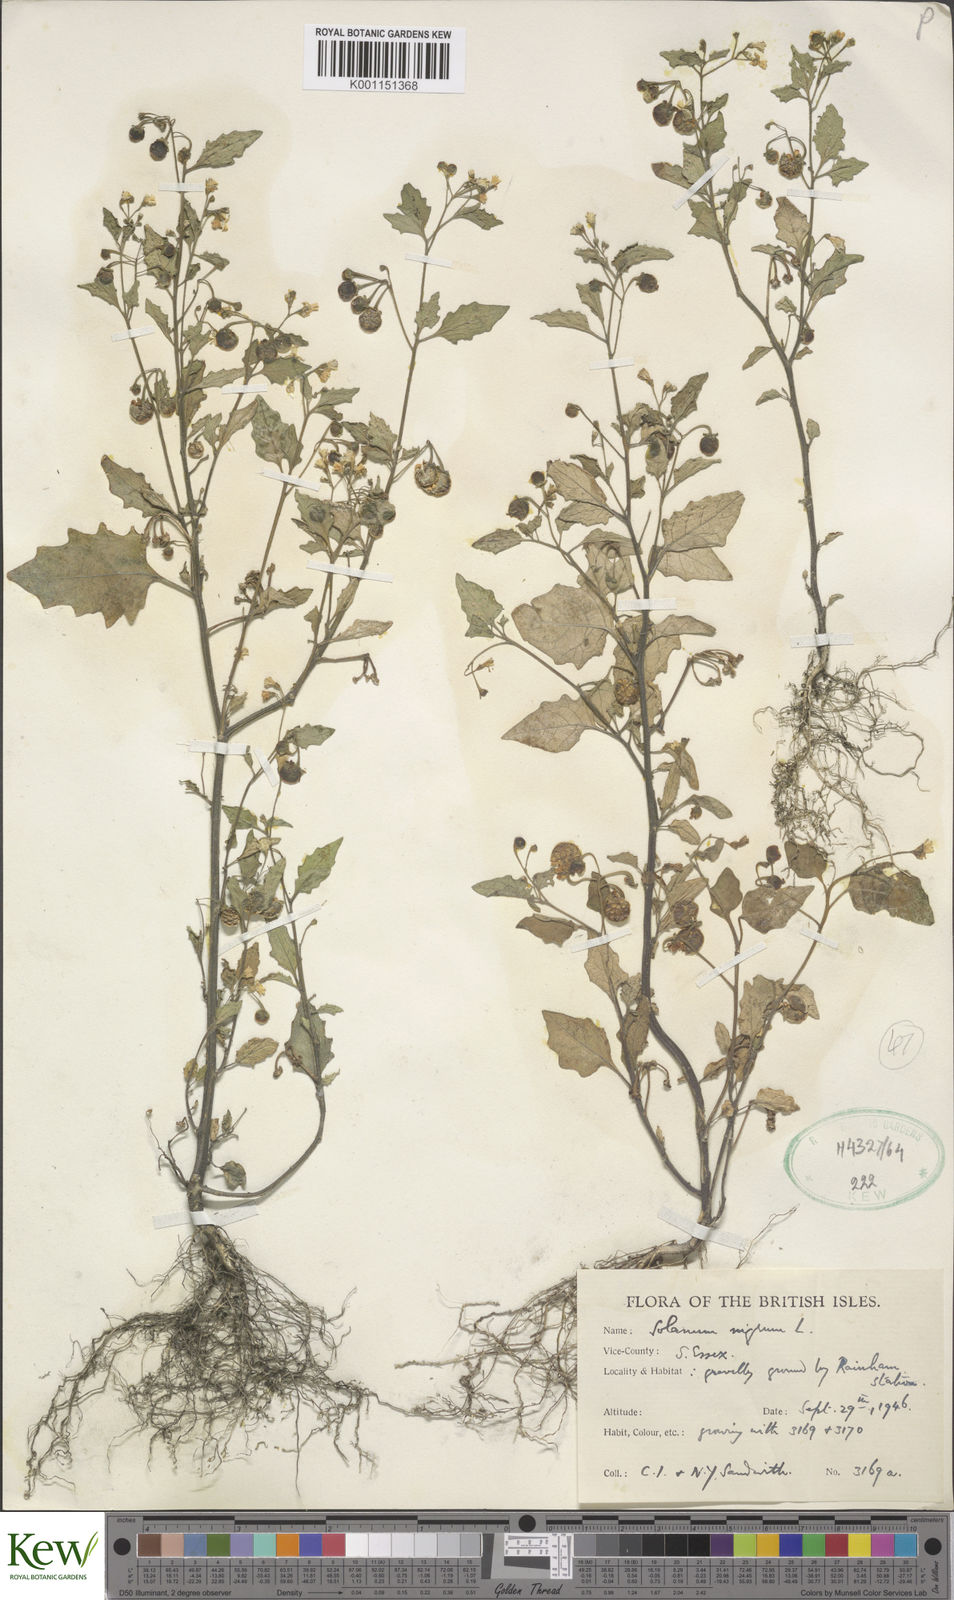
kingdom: Plantae
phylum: Tracheophyta
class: Magnoliopsida
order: Solanales
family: Solanaceae
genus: Solanum
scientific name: Solanum decipiens
